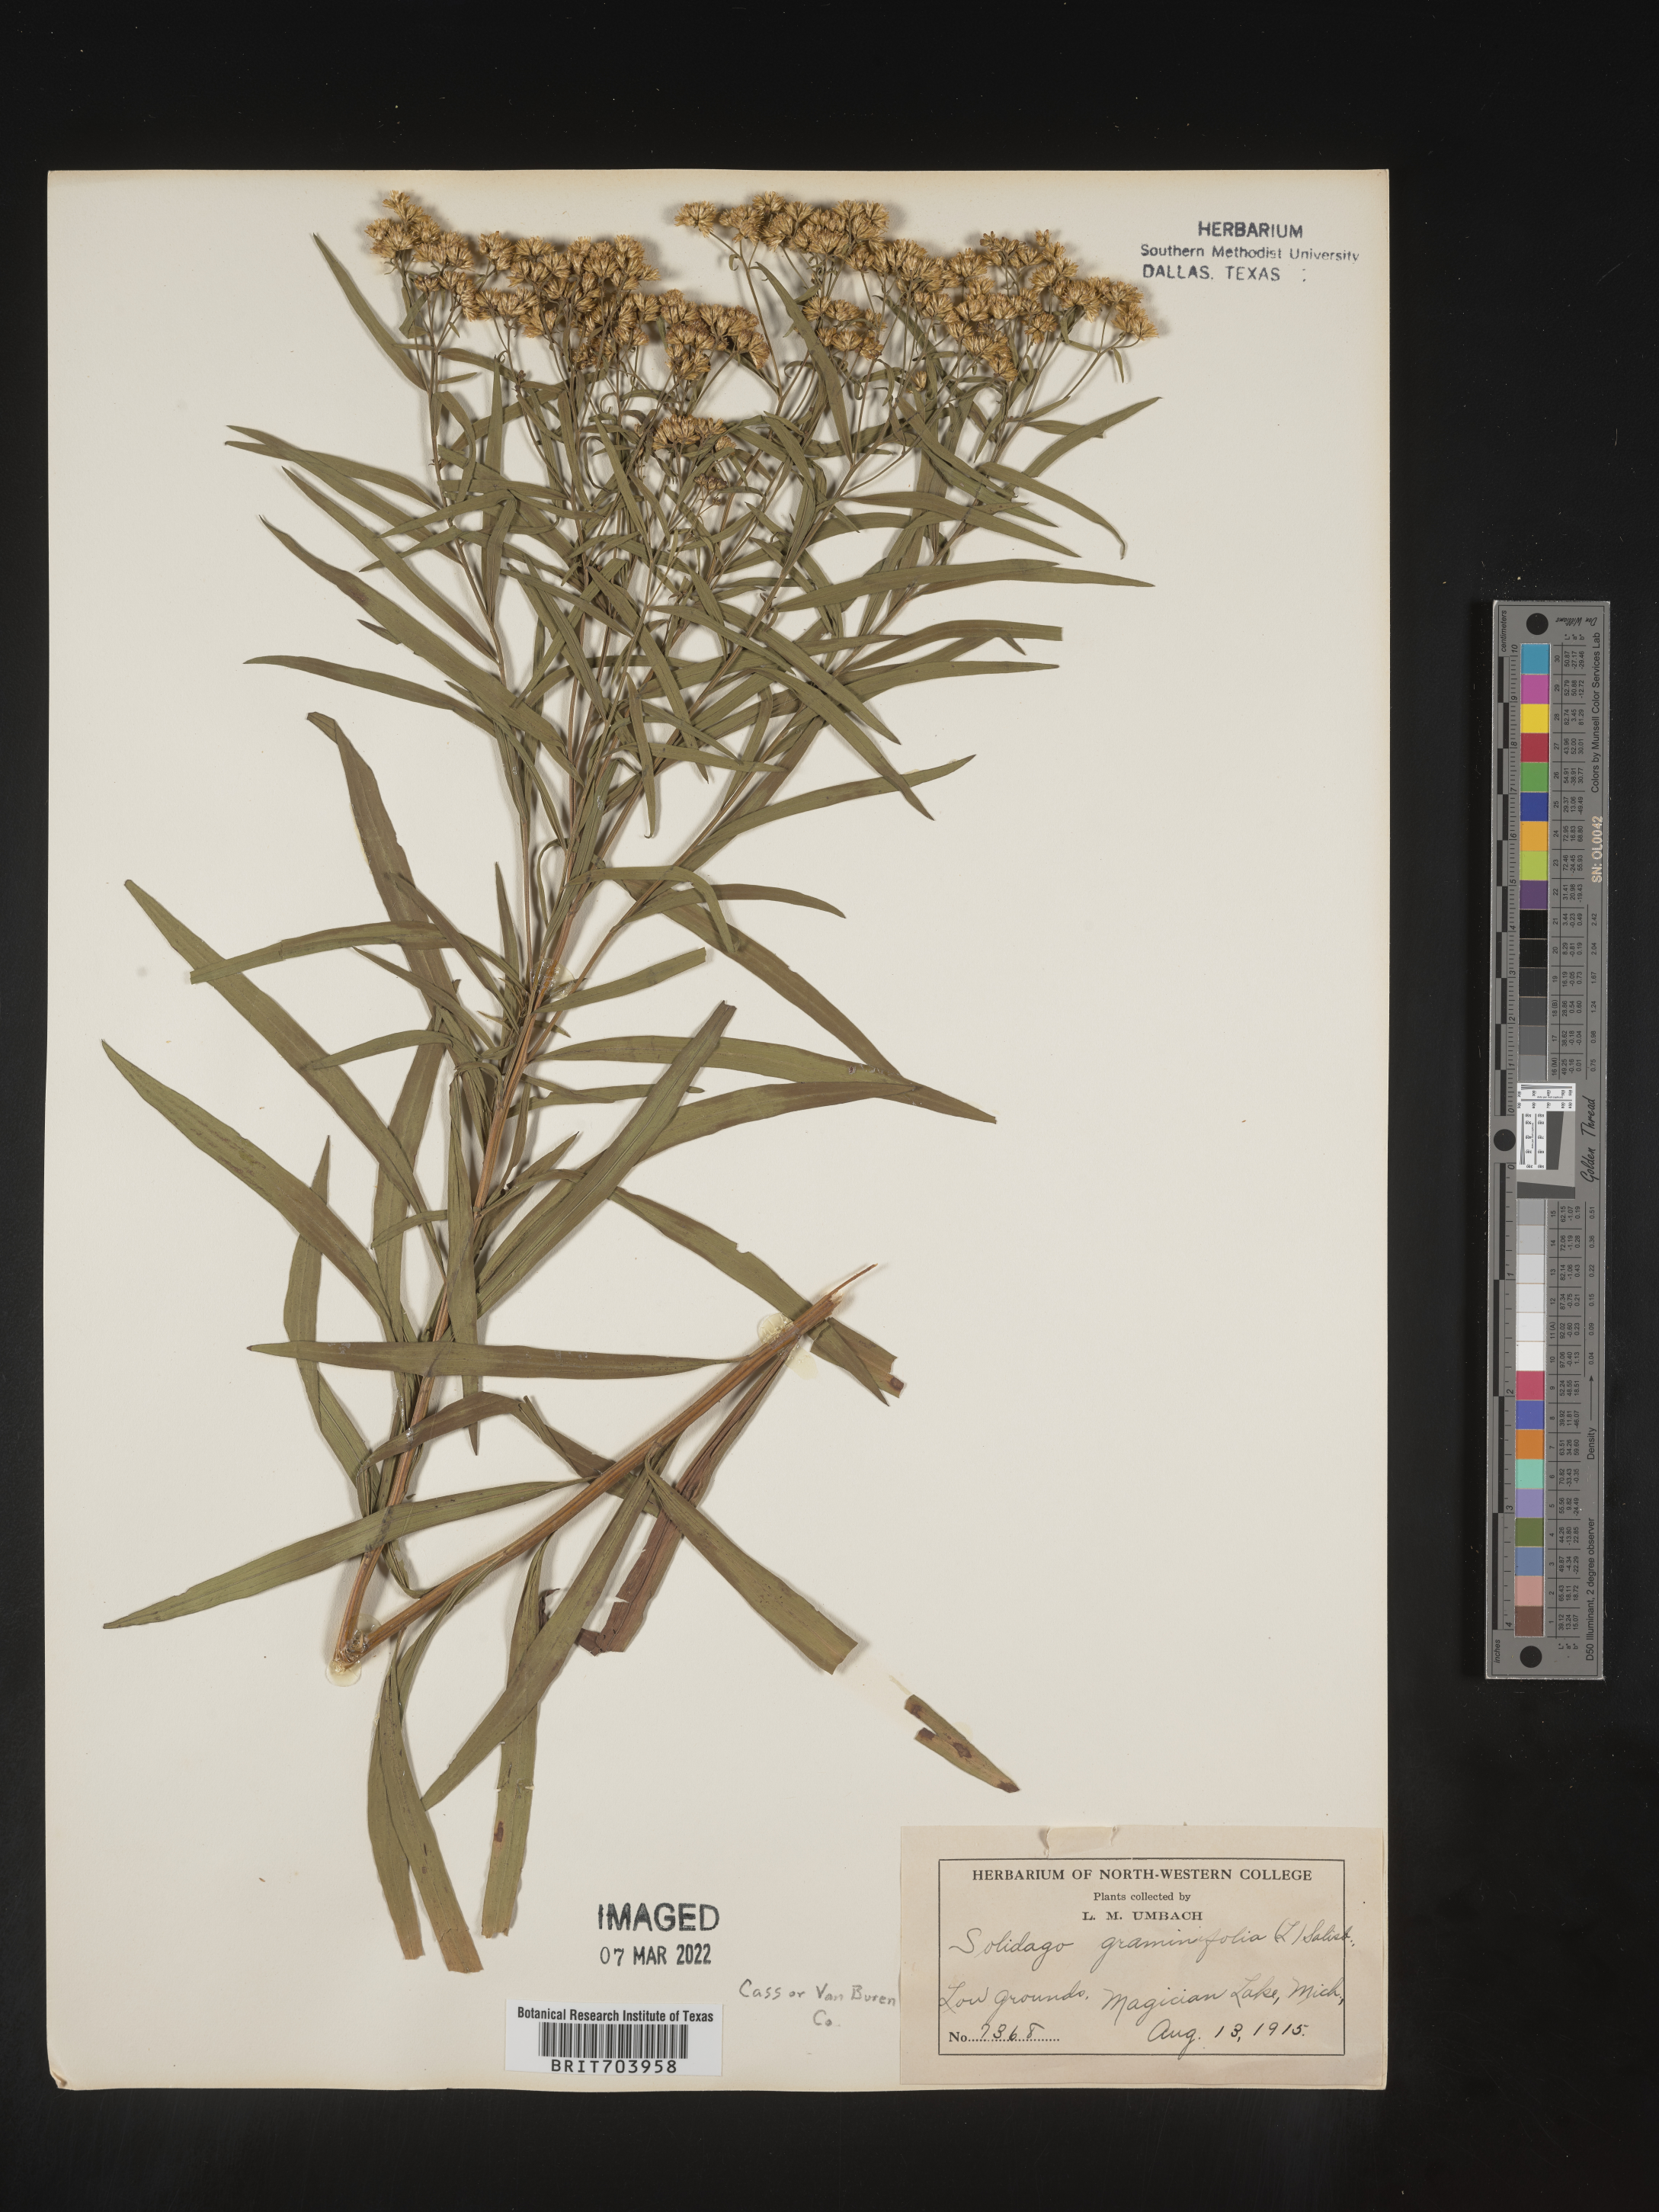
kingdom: Plantae
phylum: Tracheophyta
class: Magnoliopsida
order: Asterales
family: Asteraceae
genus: Euthamia
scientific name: Euthamia graminifolia
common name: Common goldentop
